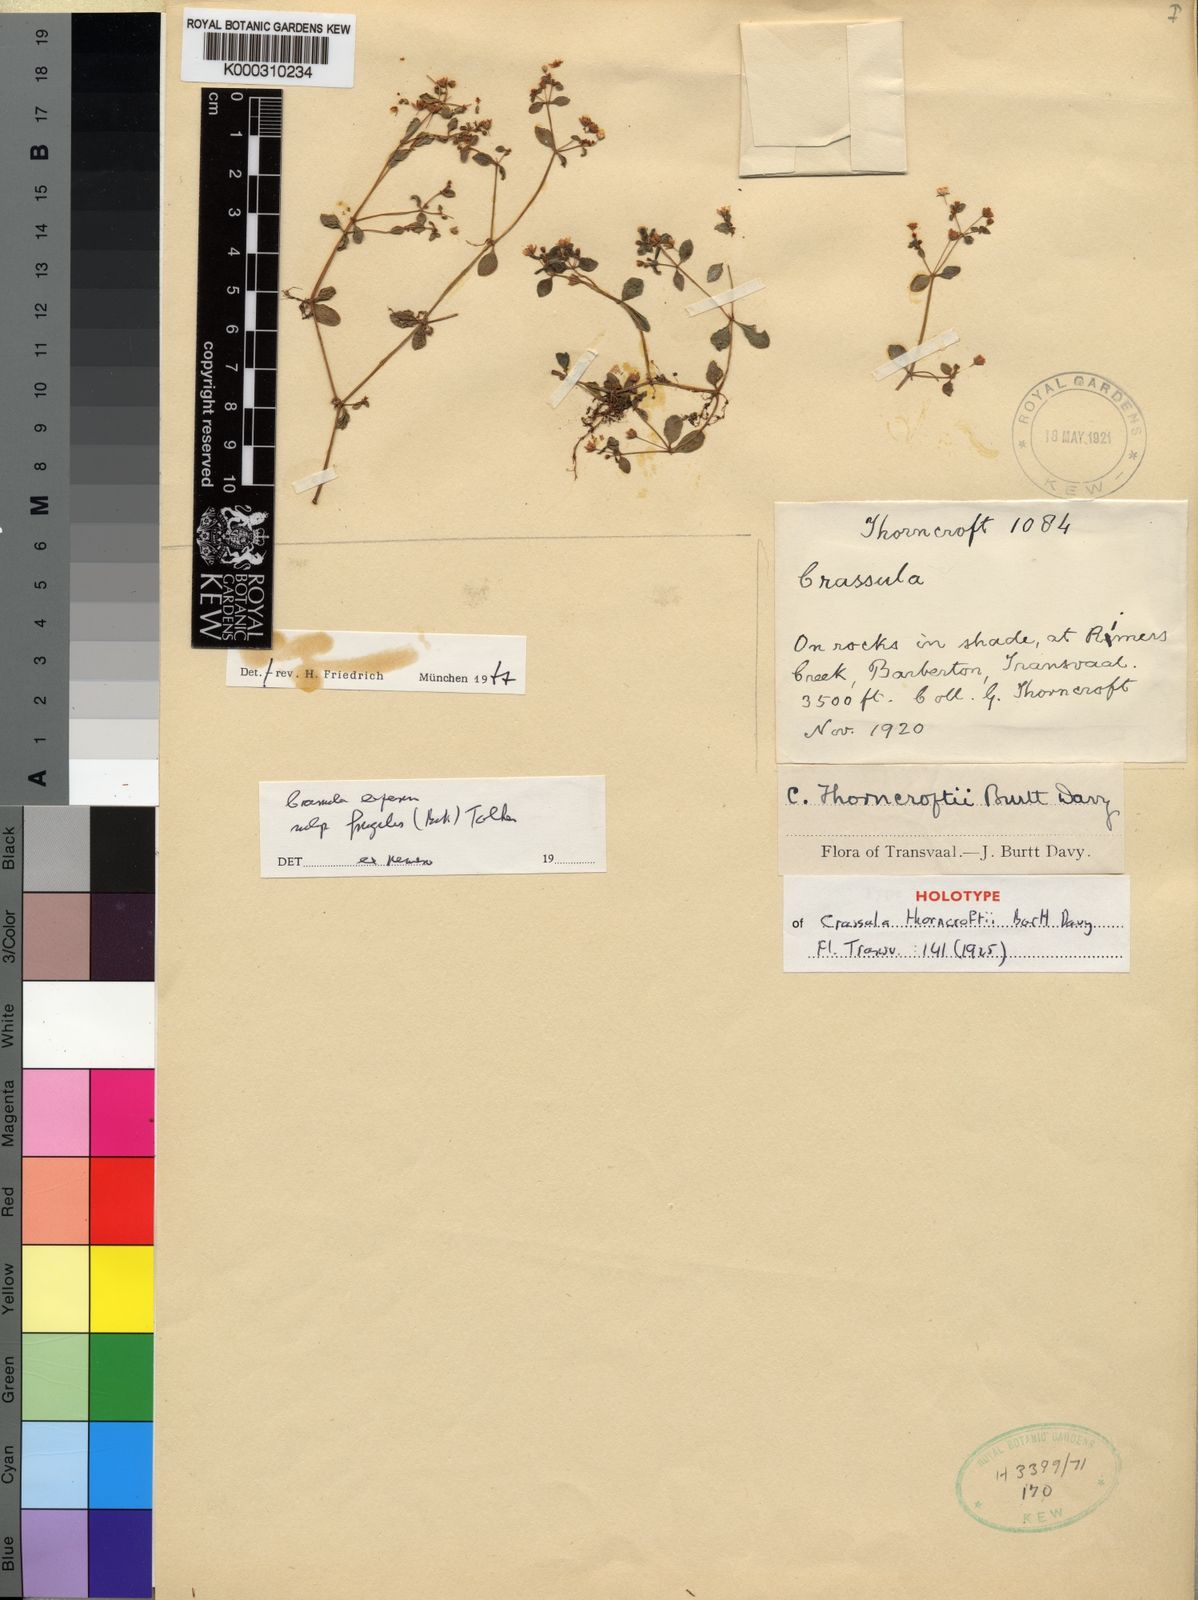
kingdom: Plantae
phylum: Tracheophyta
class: Magnoliopsida
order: Saxifragales
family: Crassulaceae
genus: Crassula
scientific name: Crassula expansa
